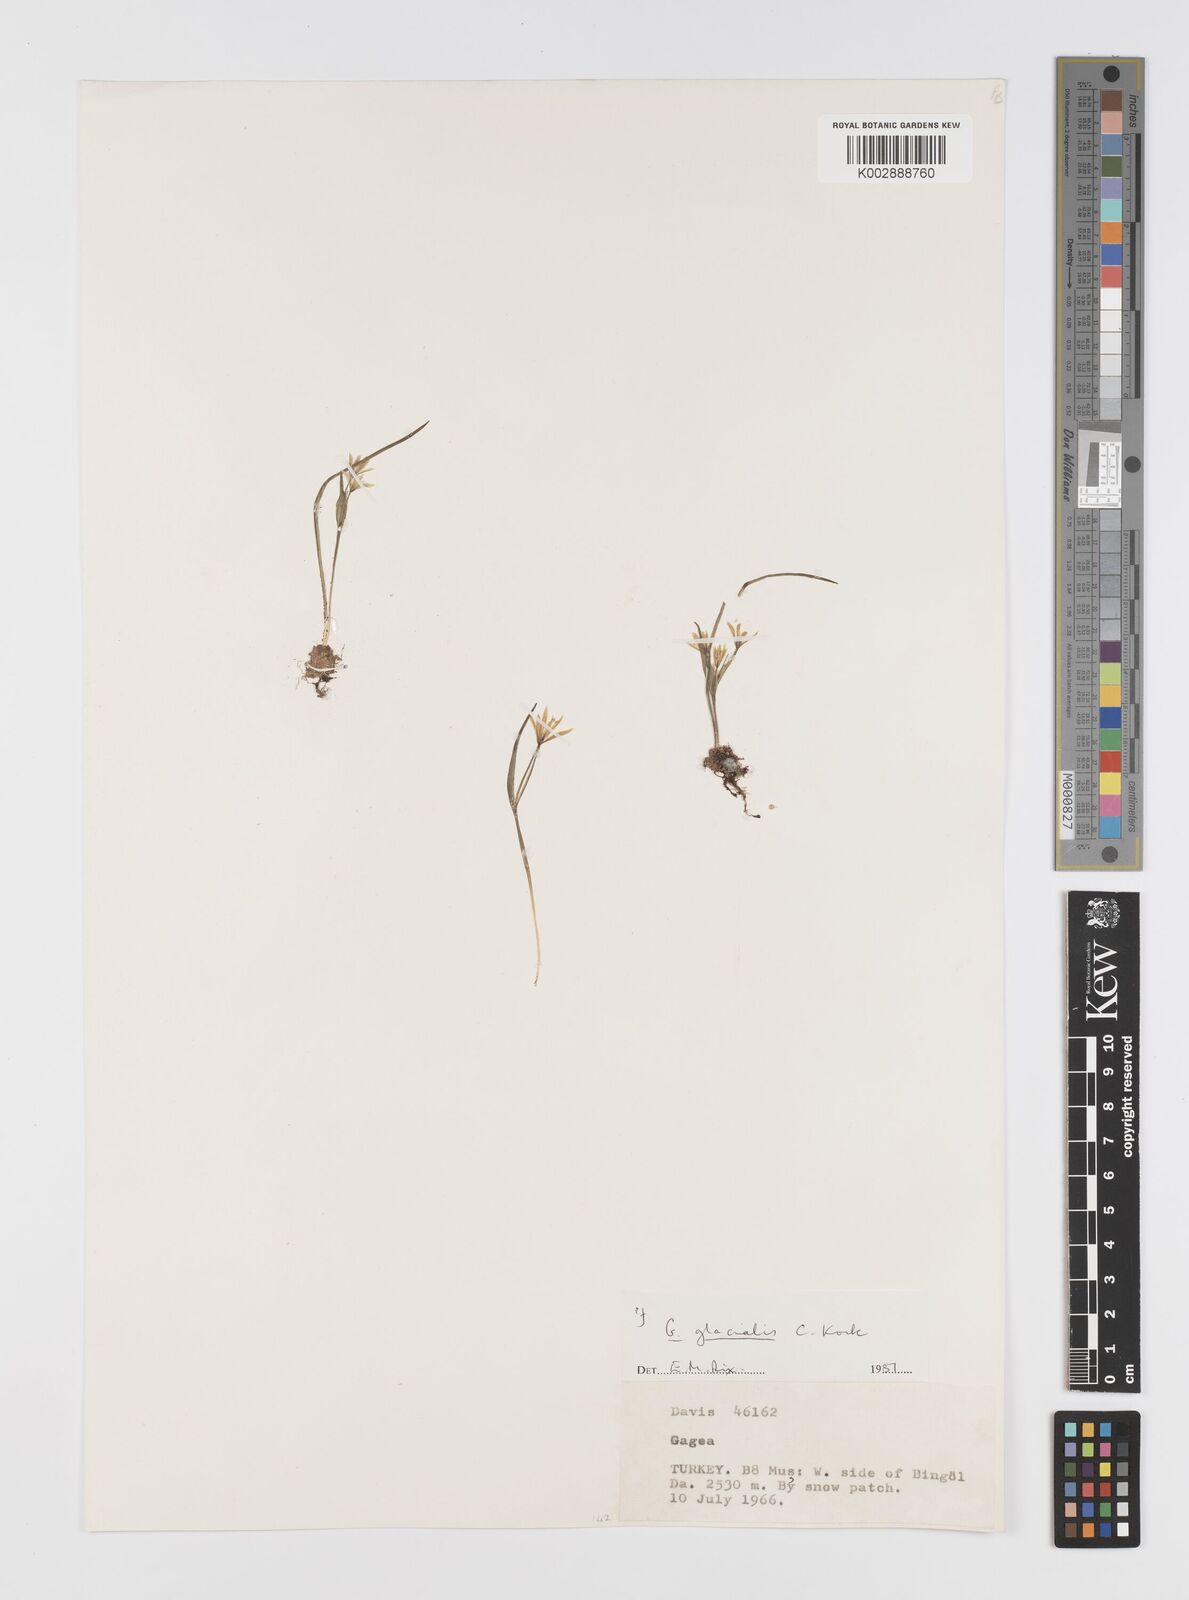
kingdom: Plantae
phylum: Tracheophyta
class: Liliopsida
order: Liliales
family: Liliaceae
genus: Gagea
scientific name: Gagea glacialis
